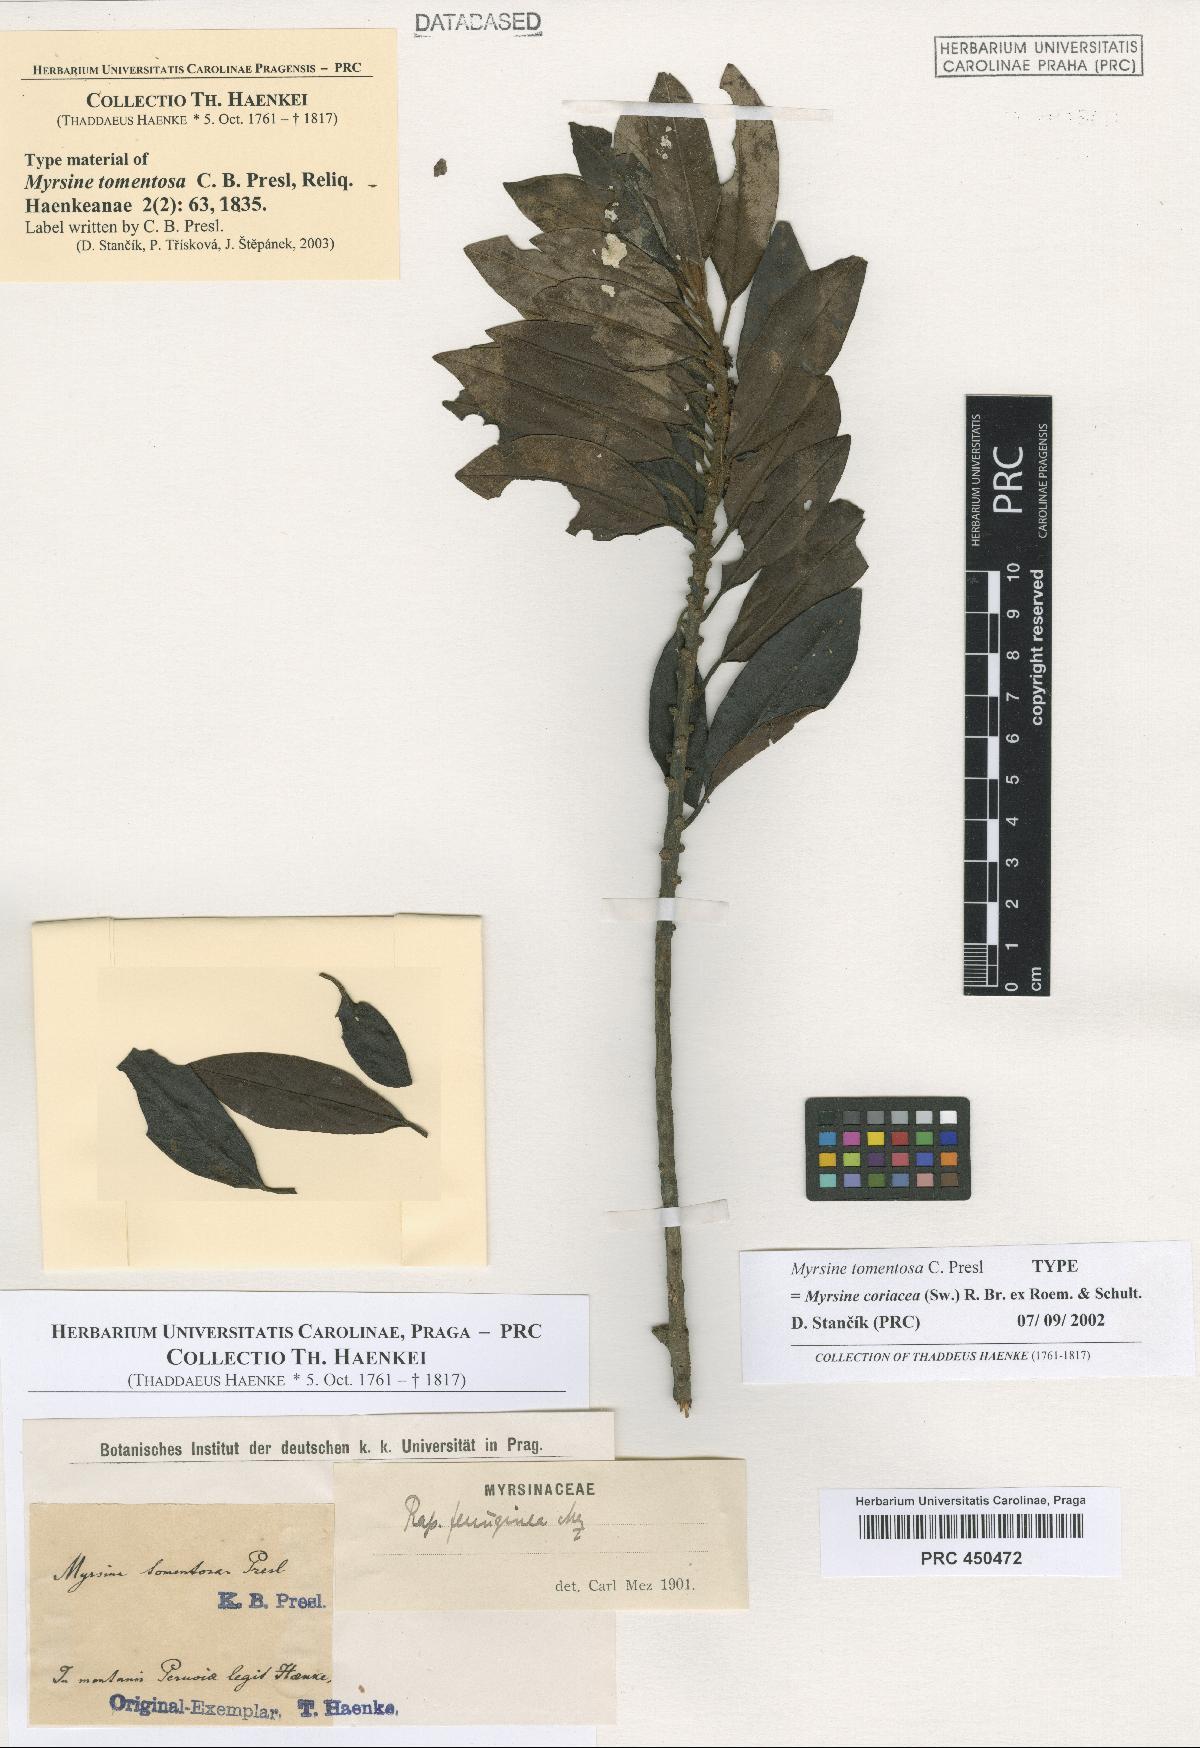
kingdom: Plantae
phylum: Tracheophyta
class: Magnoliopsida
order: Ericales
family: Primulaceae
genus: Myrsine
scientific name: Myrsine coriacea
